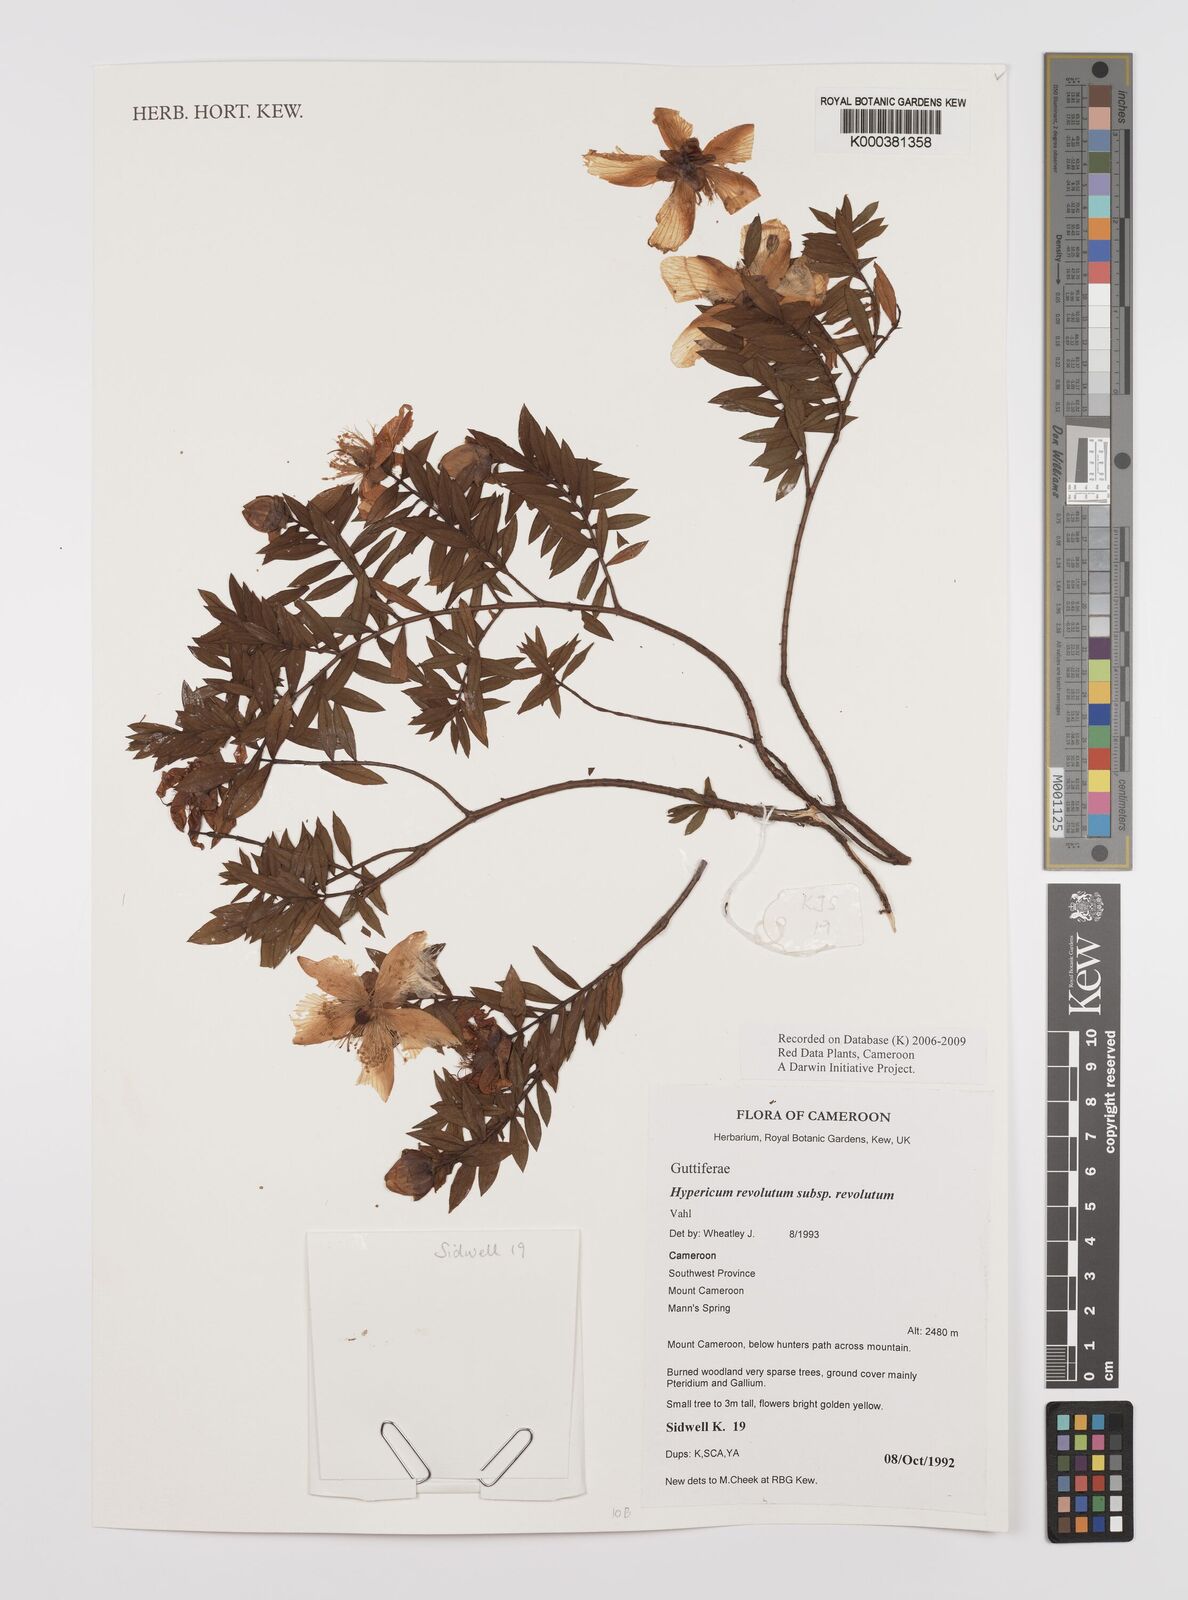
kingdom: Plantae
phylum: Tracheophyta
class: Magnoliopsida
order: Malpighiales
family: Hypericaceae
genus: Hypericum
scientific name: Hypericum revolutum
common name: Curry bush
